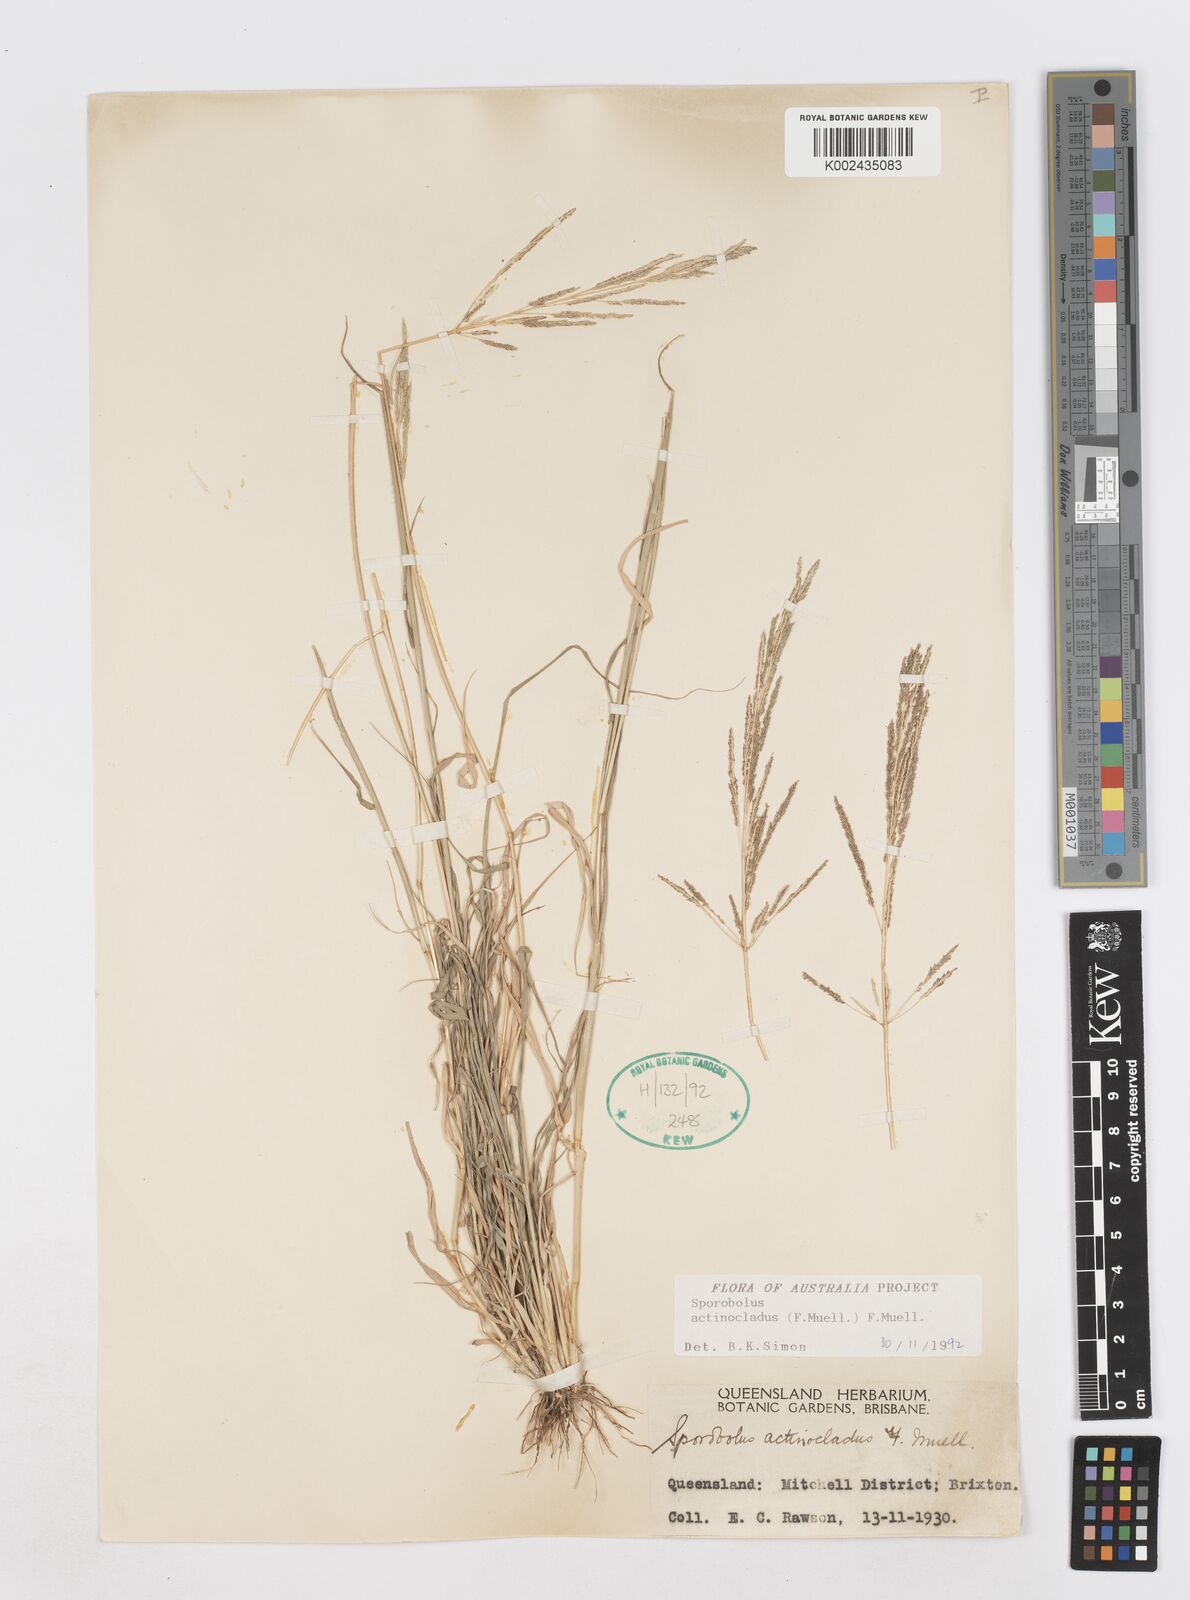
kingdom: Plantae
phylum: Tracheophyta
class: Liliopsida
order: Poales
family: Poaceae
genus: Sporobolus
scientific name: Sporobolus actinocladus
